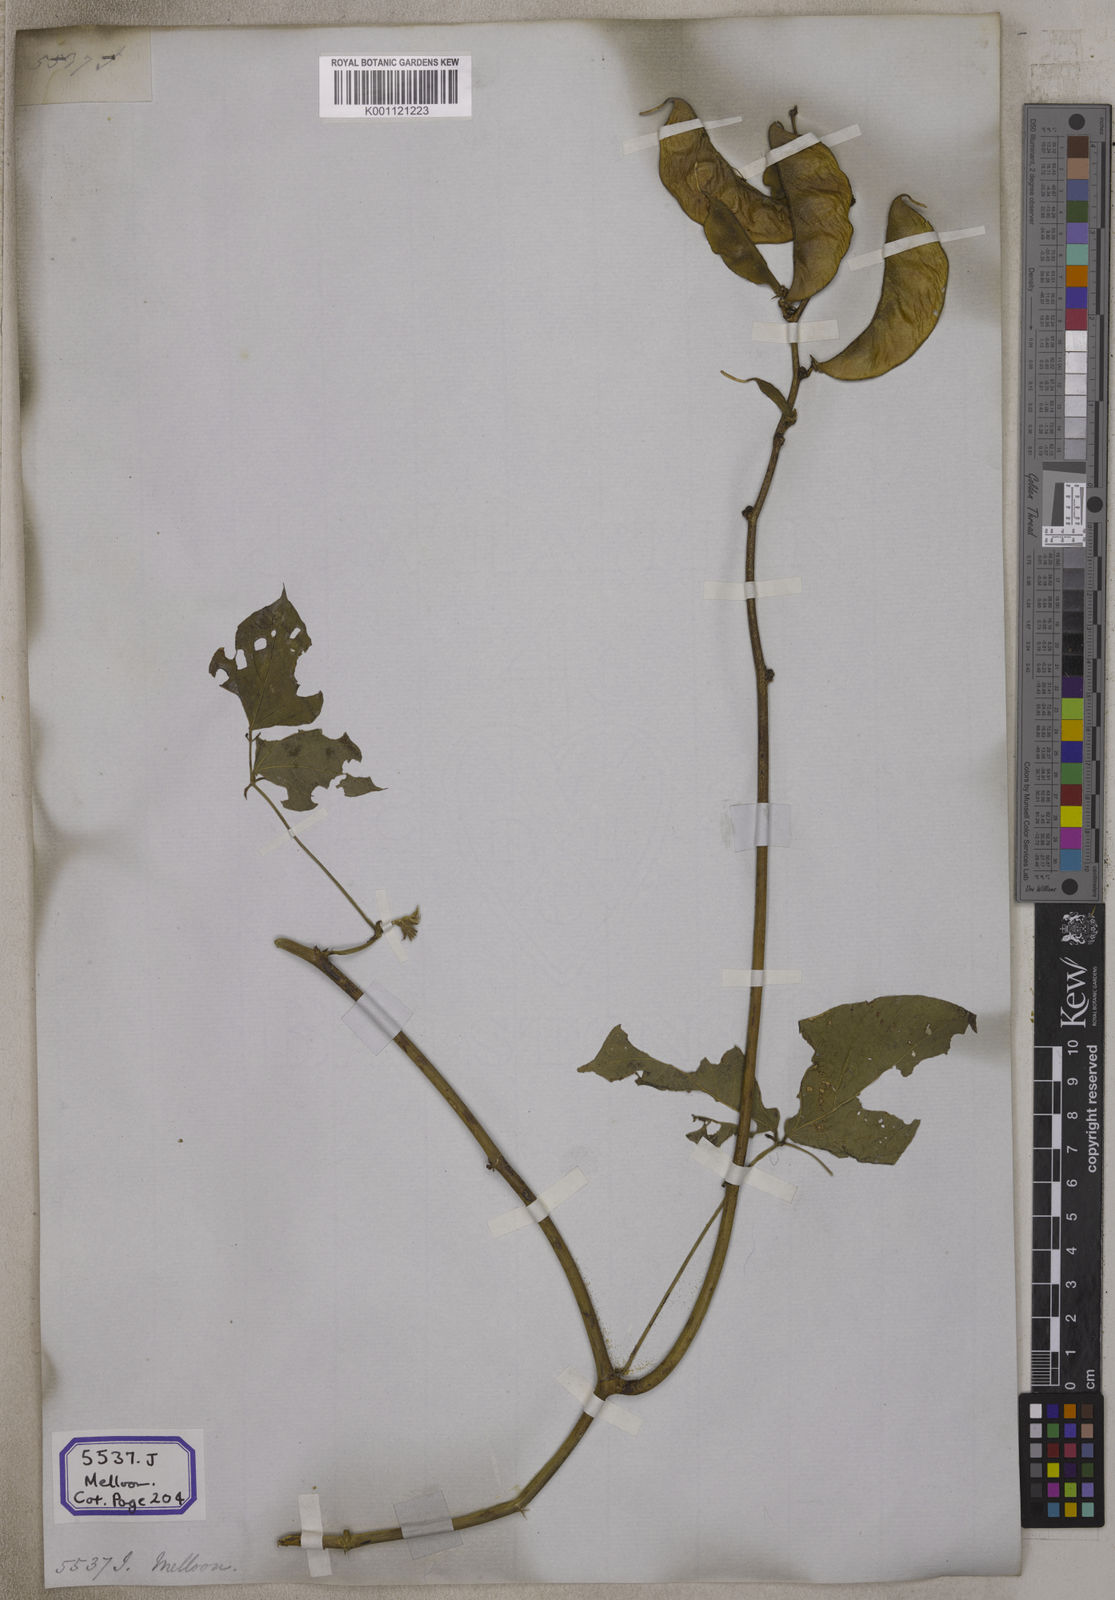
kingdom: Plantae
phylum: Tracheophyta
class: Magnoliopsida
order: Fabales
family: Fabaceae
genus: Lablab
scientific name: Lablab purpureus
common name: Lablab-bean
